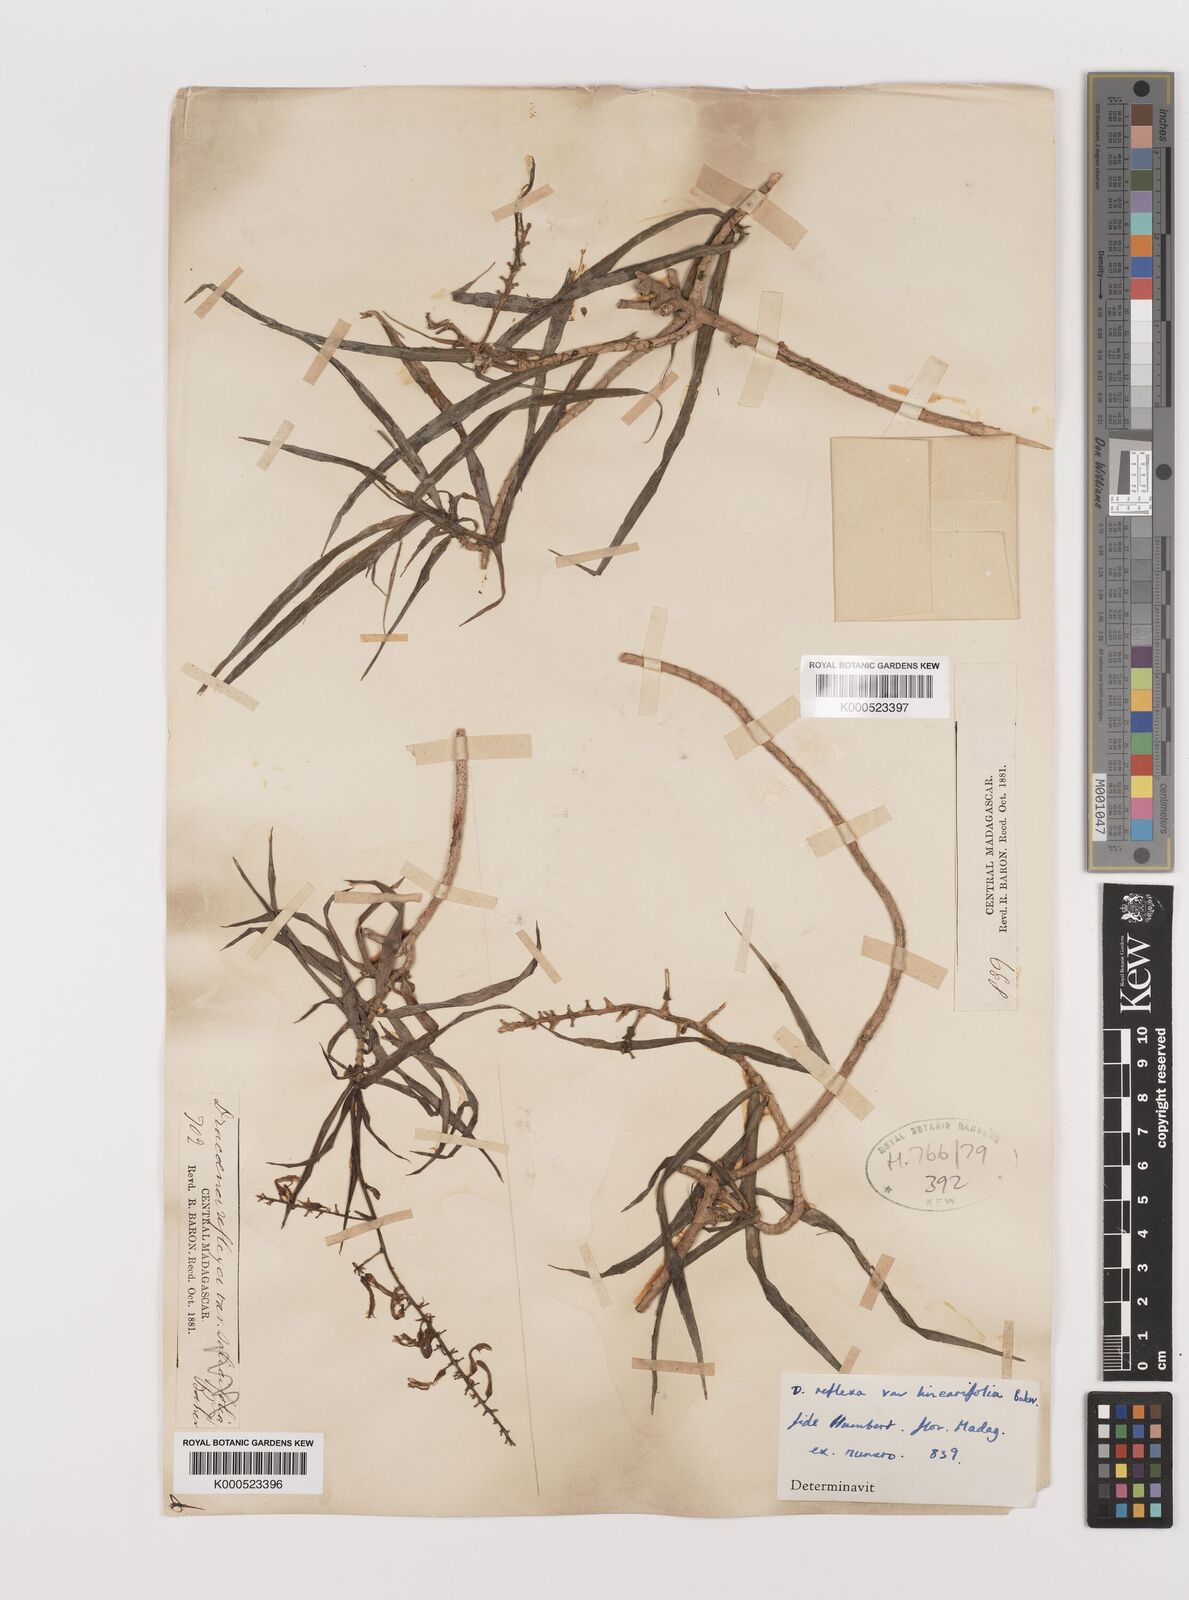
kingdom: Plantae
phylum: Tracheophyta
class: Liliopsida
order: Asparagales
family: Asparagaceae
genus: Dracaena
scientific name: Dracaena reflexa
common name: Song-of-india
